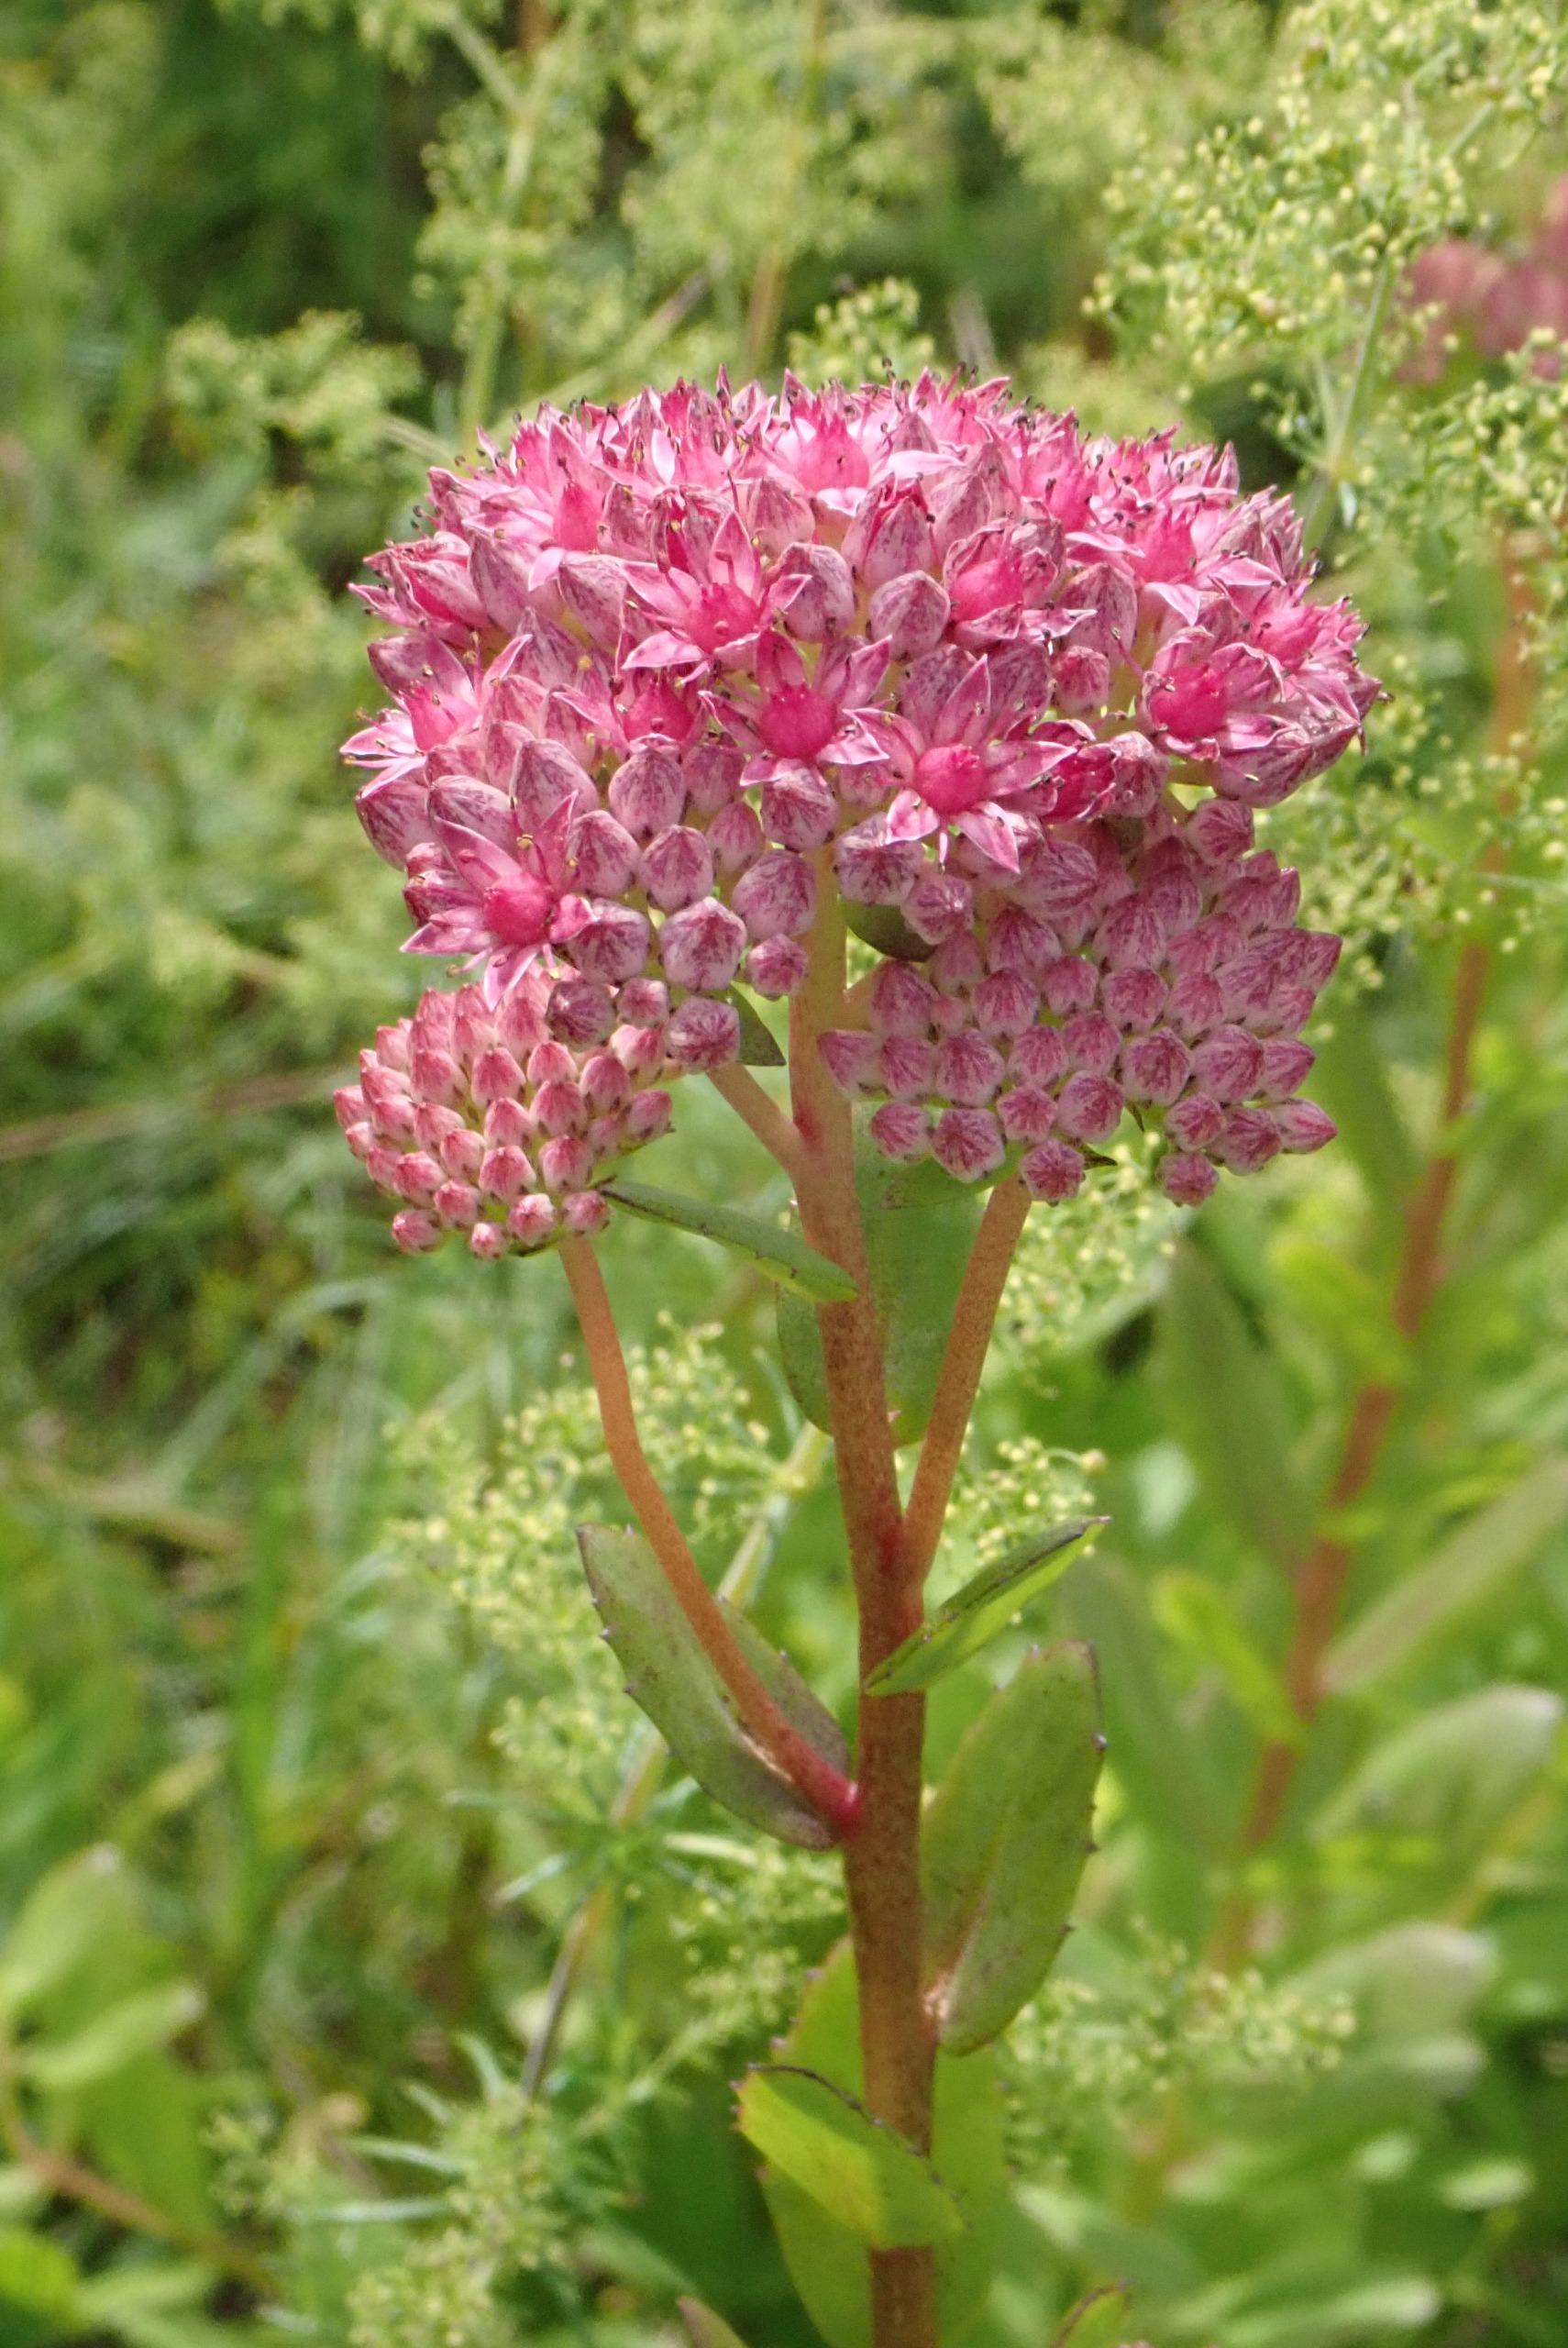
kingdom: Plantae
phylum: Tracheophyta
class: Magnoliopsida
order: Saxifragales
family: Crassulaceae
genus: Hylotelephium
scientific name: Hylotelephium telephium
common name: Rød sankthansurt
